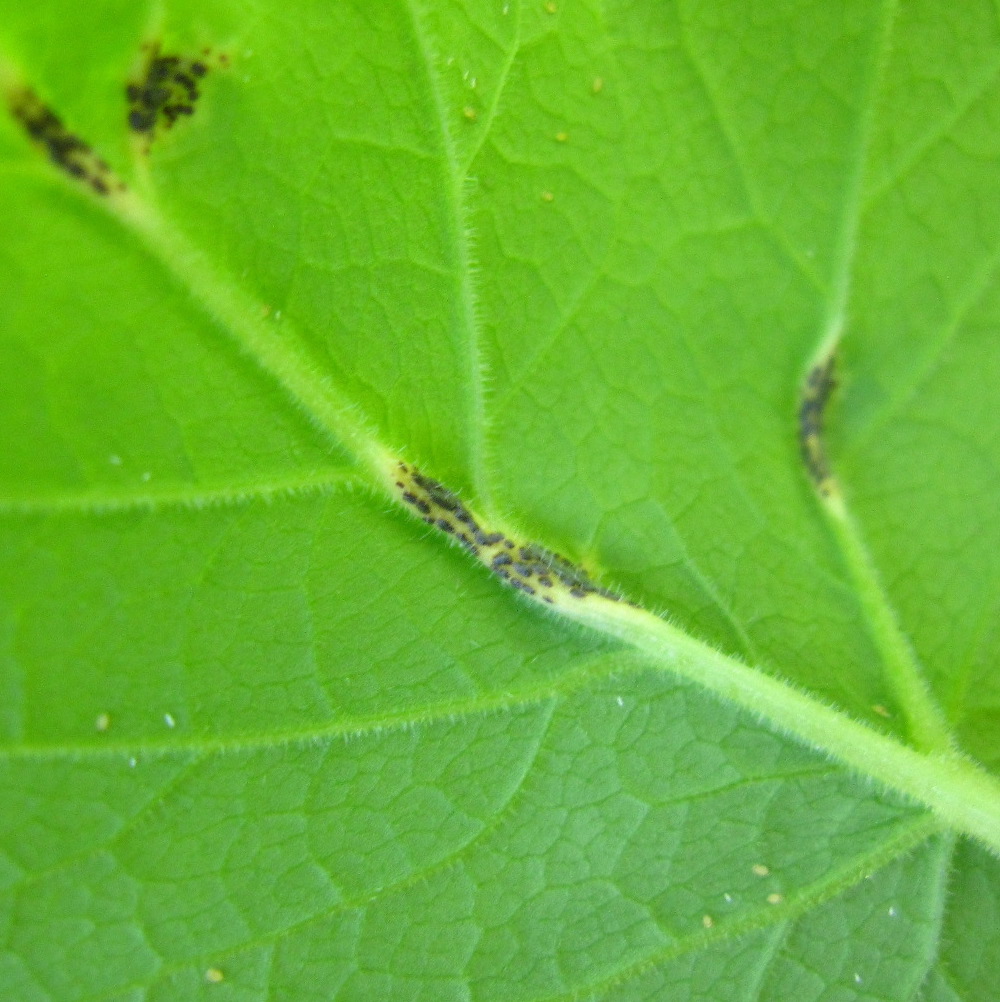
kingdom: Fungi
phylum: Basidiomycota
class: Pucciniomycetes
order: Pucciniales
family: Pucciniaceae
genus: Puccinia
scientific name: Puccinia
